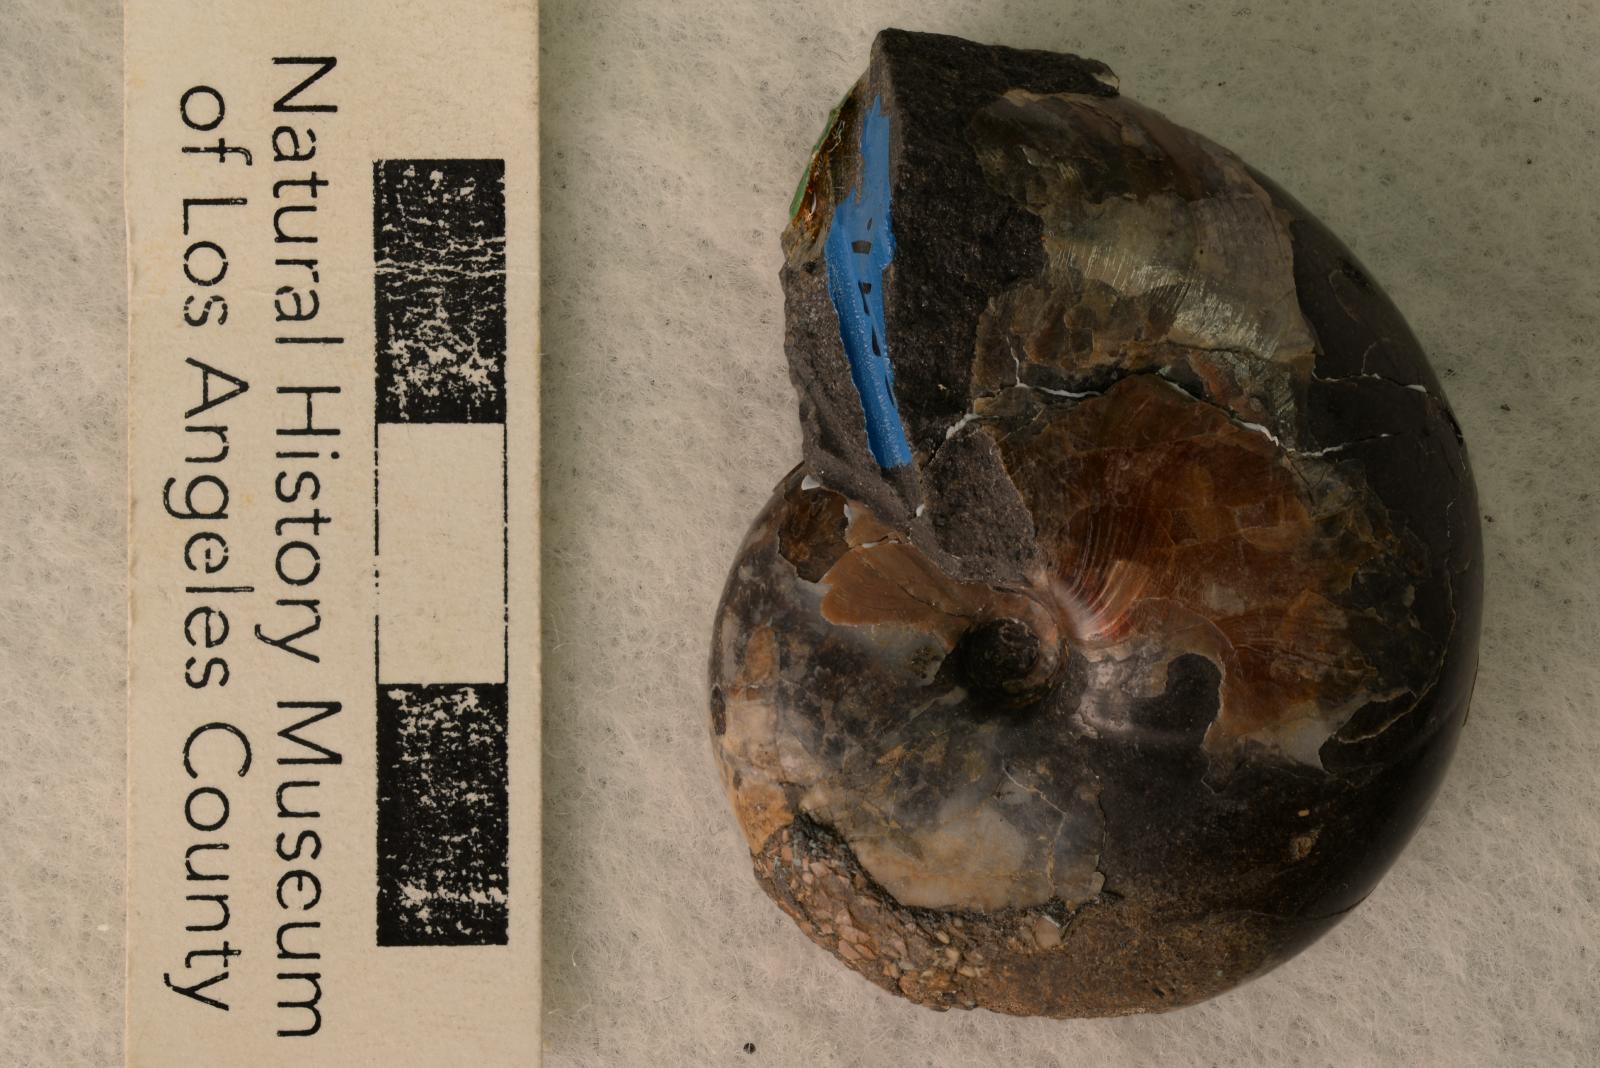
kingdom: Animalia
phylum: Mollusca
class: Cephalopoda
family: Desmoceratidae
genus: Desmoceras
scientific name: Desmoceras japonicum
